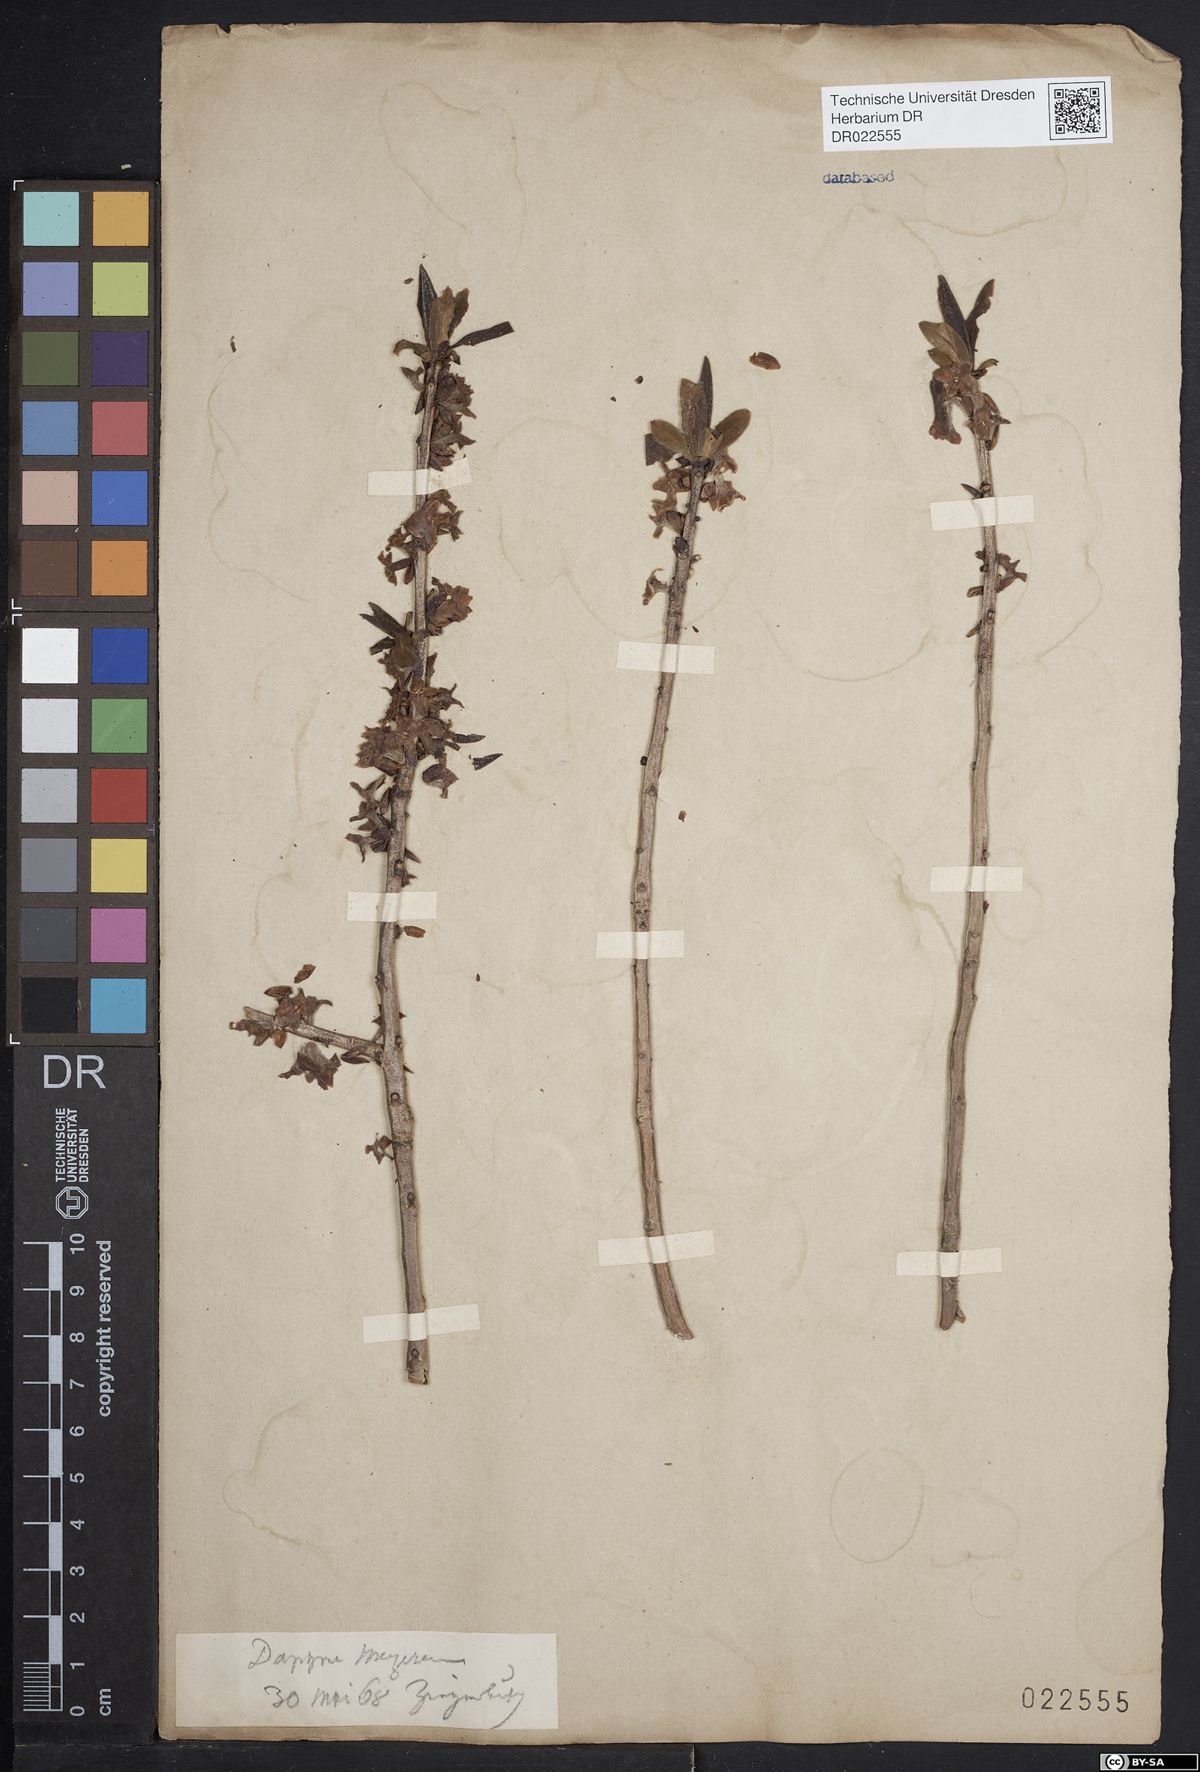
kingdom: Plantae
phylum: Tracheophyta
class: Magnoliopsida
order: Malvales
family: Thymelaeaceae
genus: Daphne
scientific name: Daphne mezereum
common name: Mezereon
